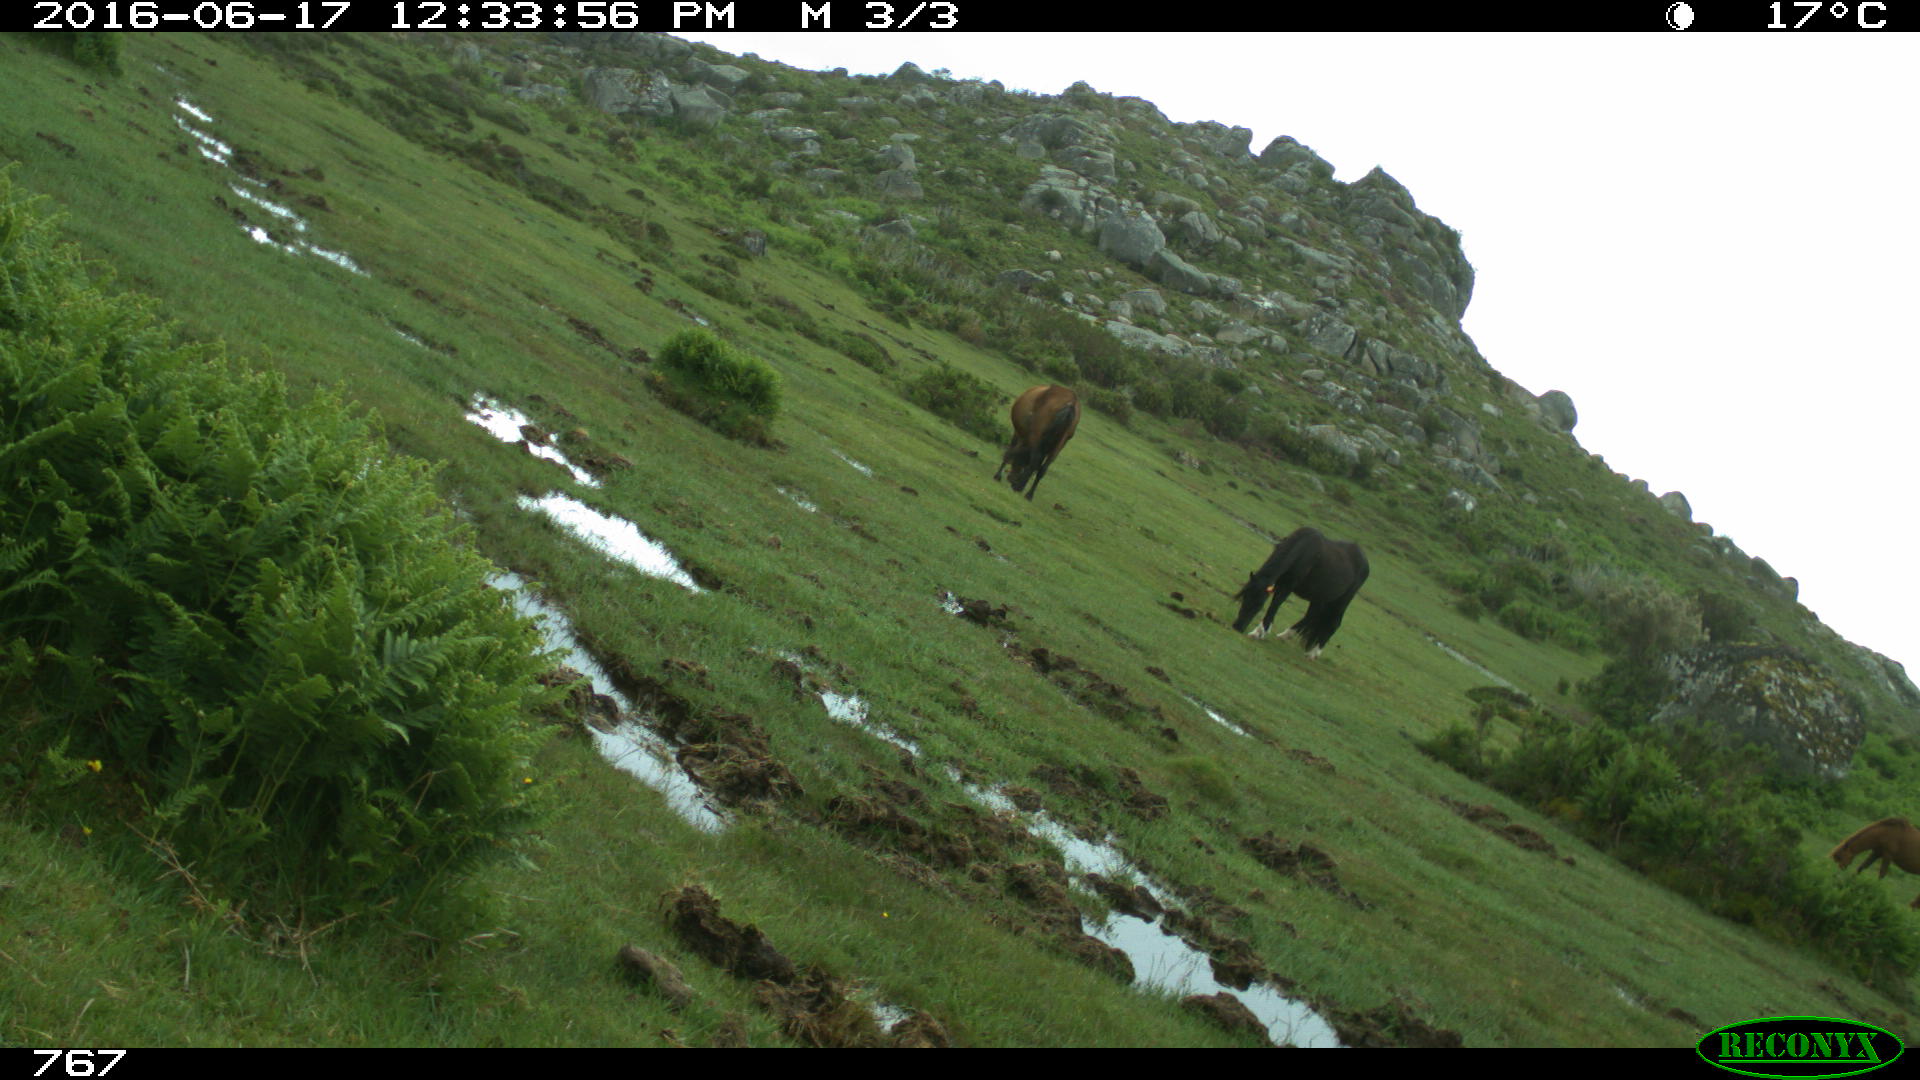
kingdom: Animalia
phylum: Chordata
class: Mammalia
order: Perissodactyla
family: Equidae
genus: Equus
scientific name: Equus caballus
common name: Horse
